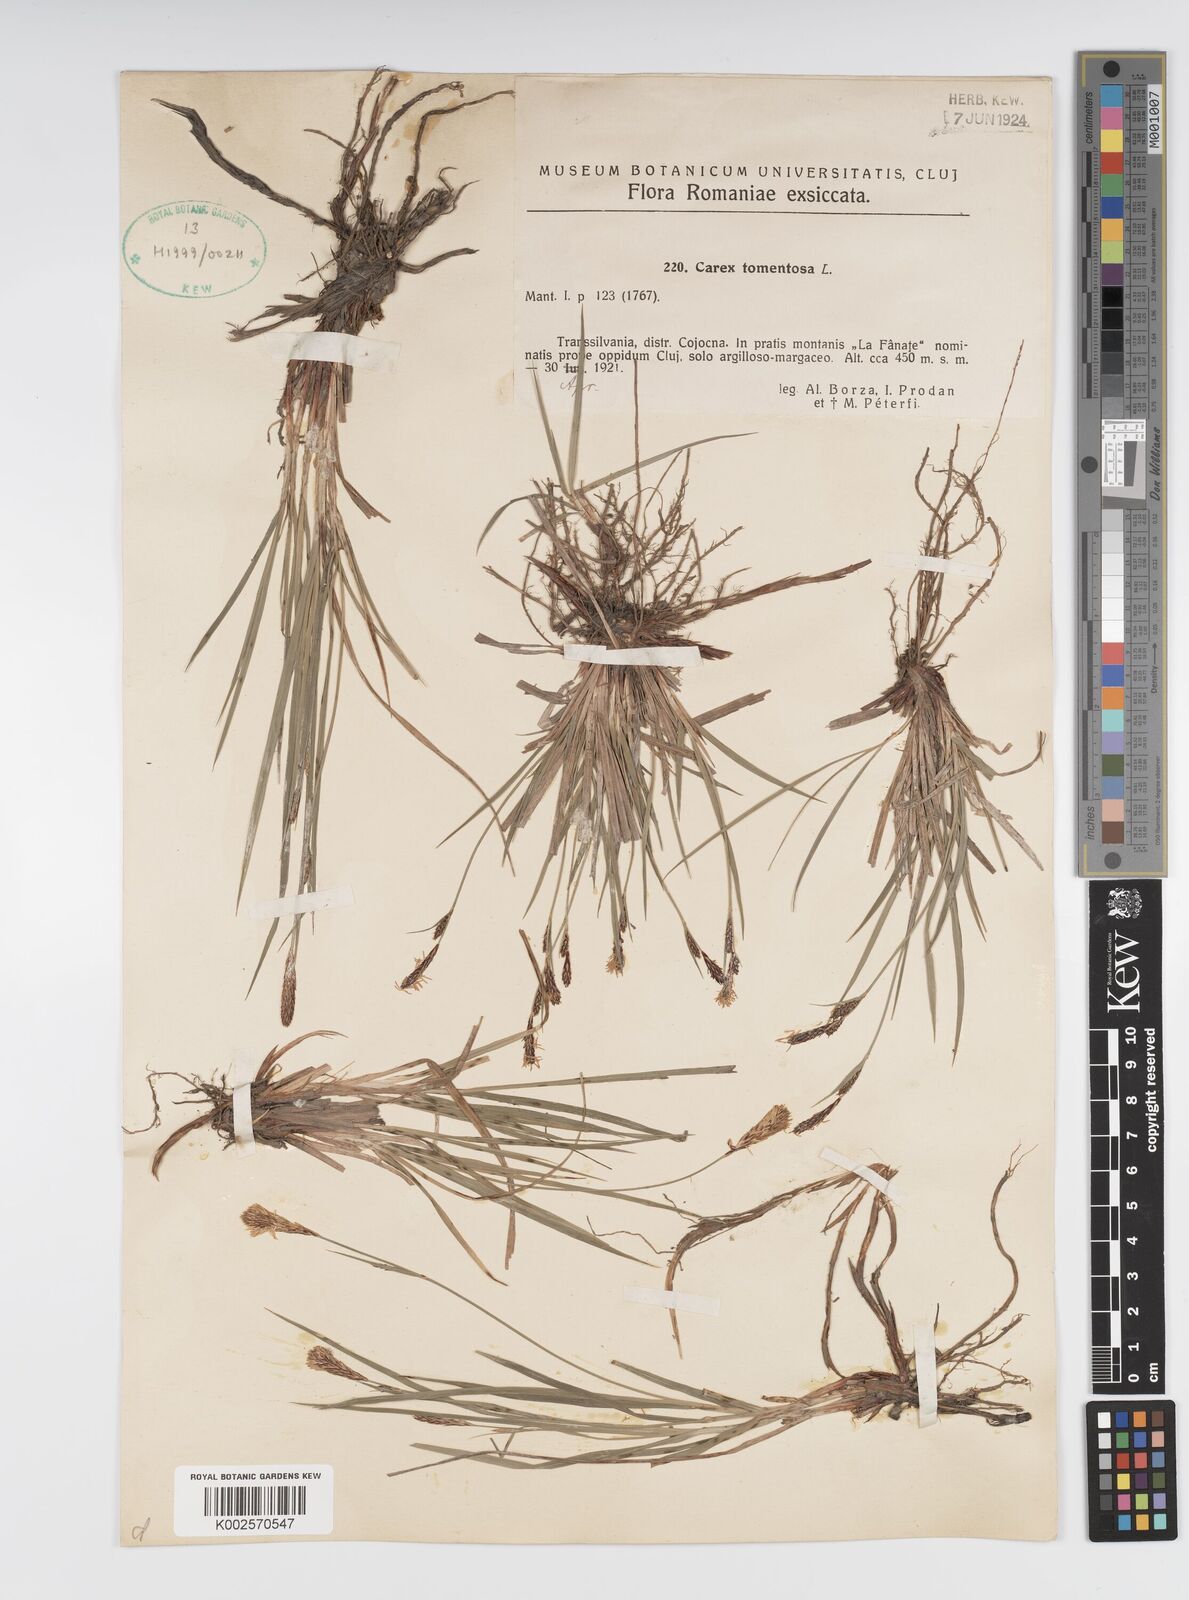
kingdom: Plantae
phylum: Tracheophyta
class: Liliopsida
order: Poales
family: Cyperaceae
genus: Carex
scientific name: Carex montana
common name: Soft-leaved sedge
